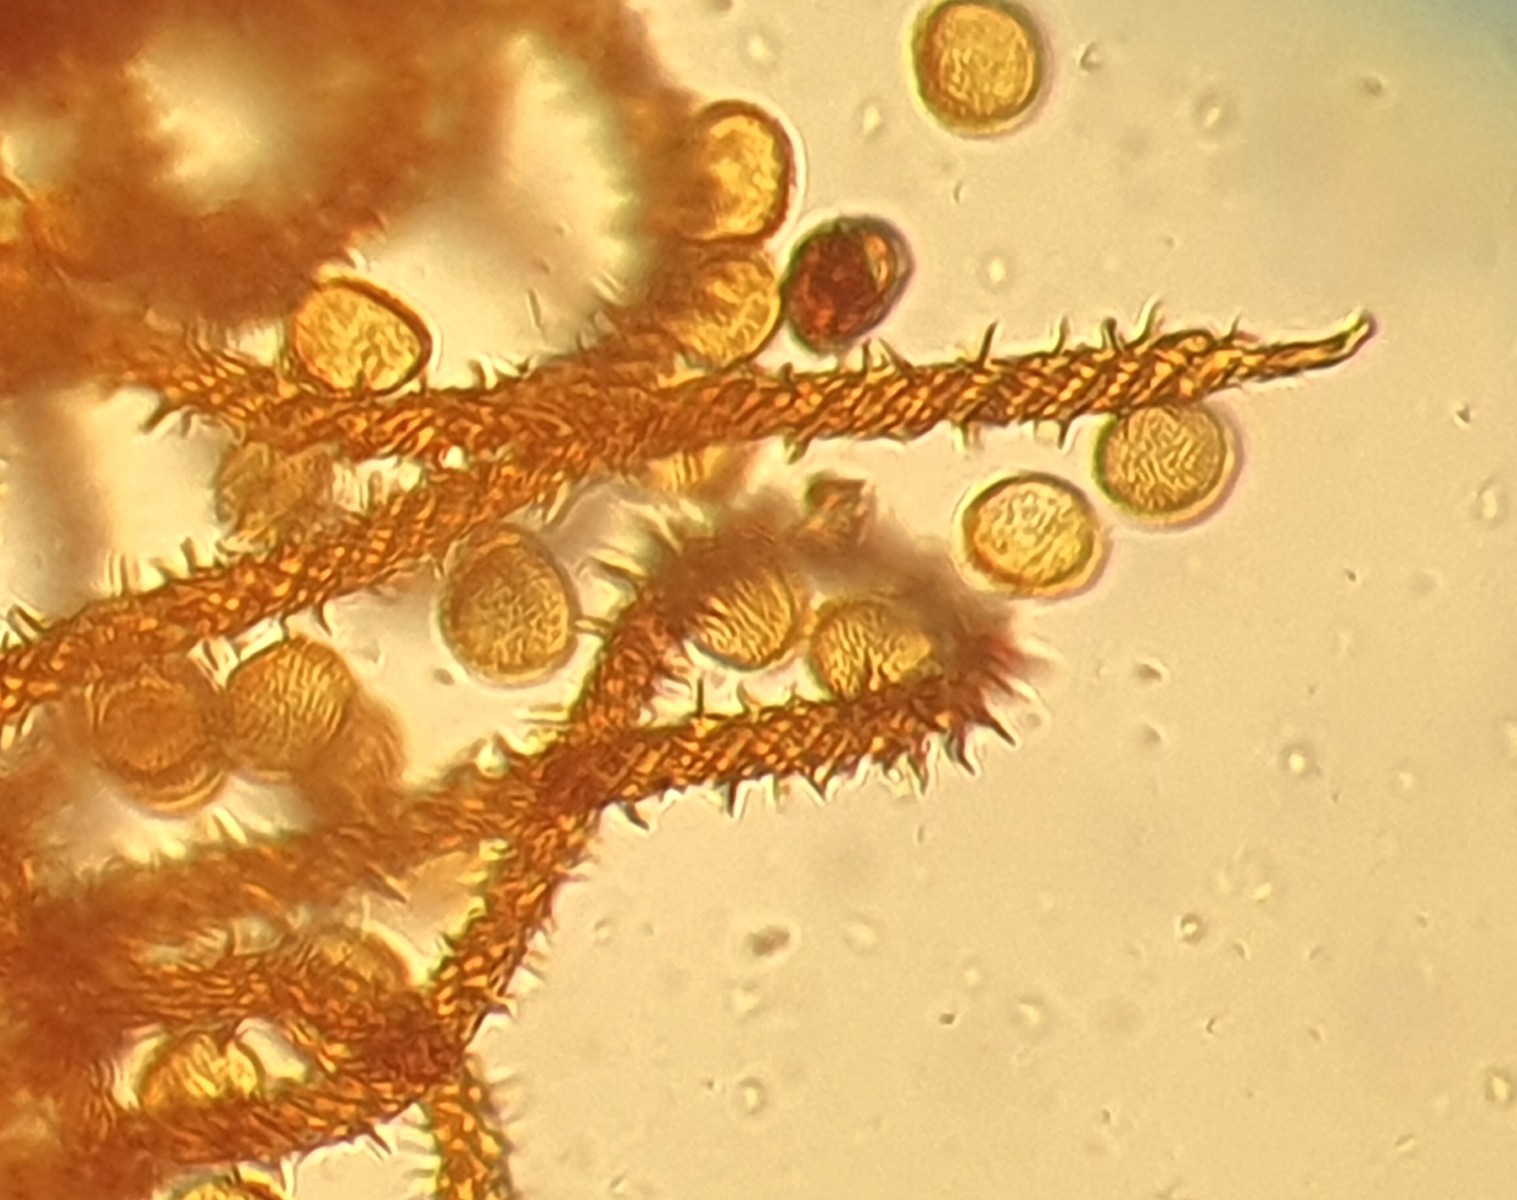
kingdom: Protozoa
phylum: Mycetozoa
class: Myxomycetes
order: Trichiales
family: Trichiaceae
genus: Metatrichia
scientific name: Metatrichia vesparia
